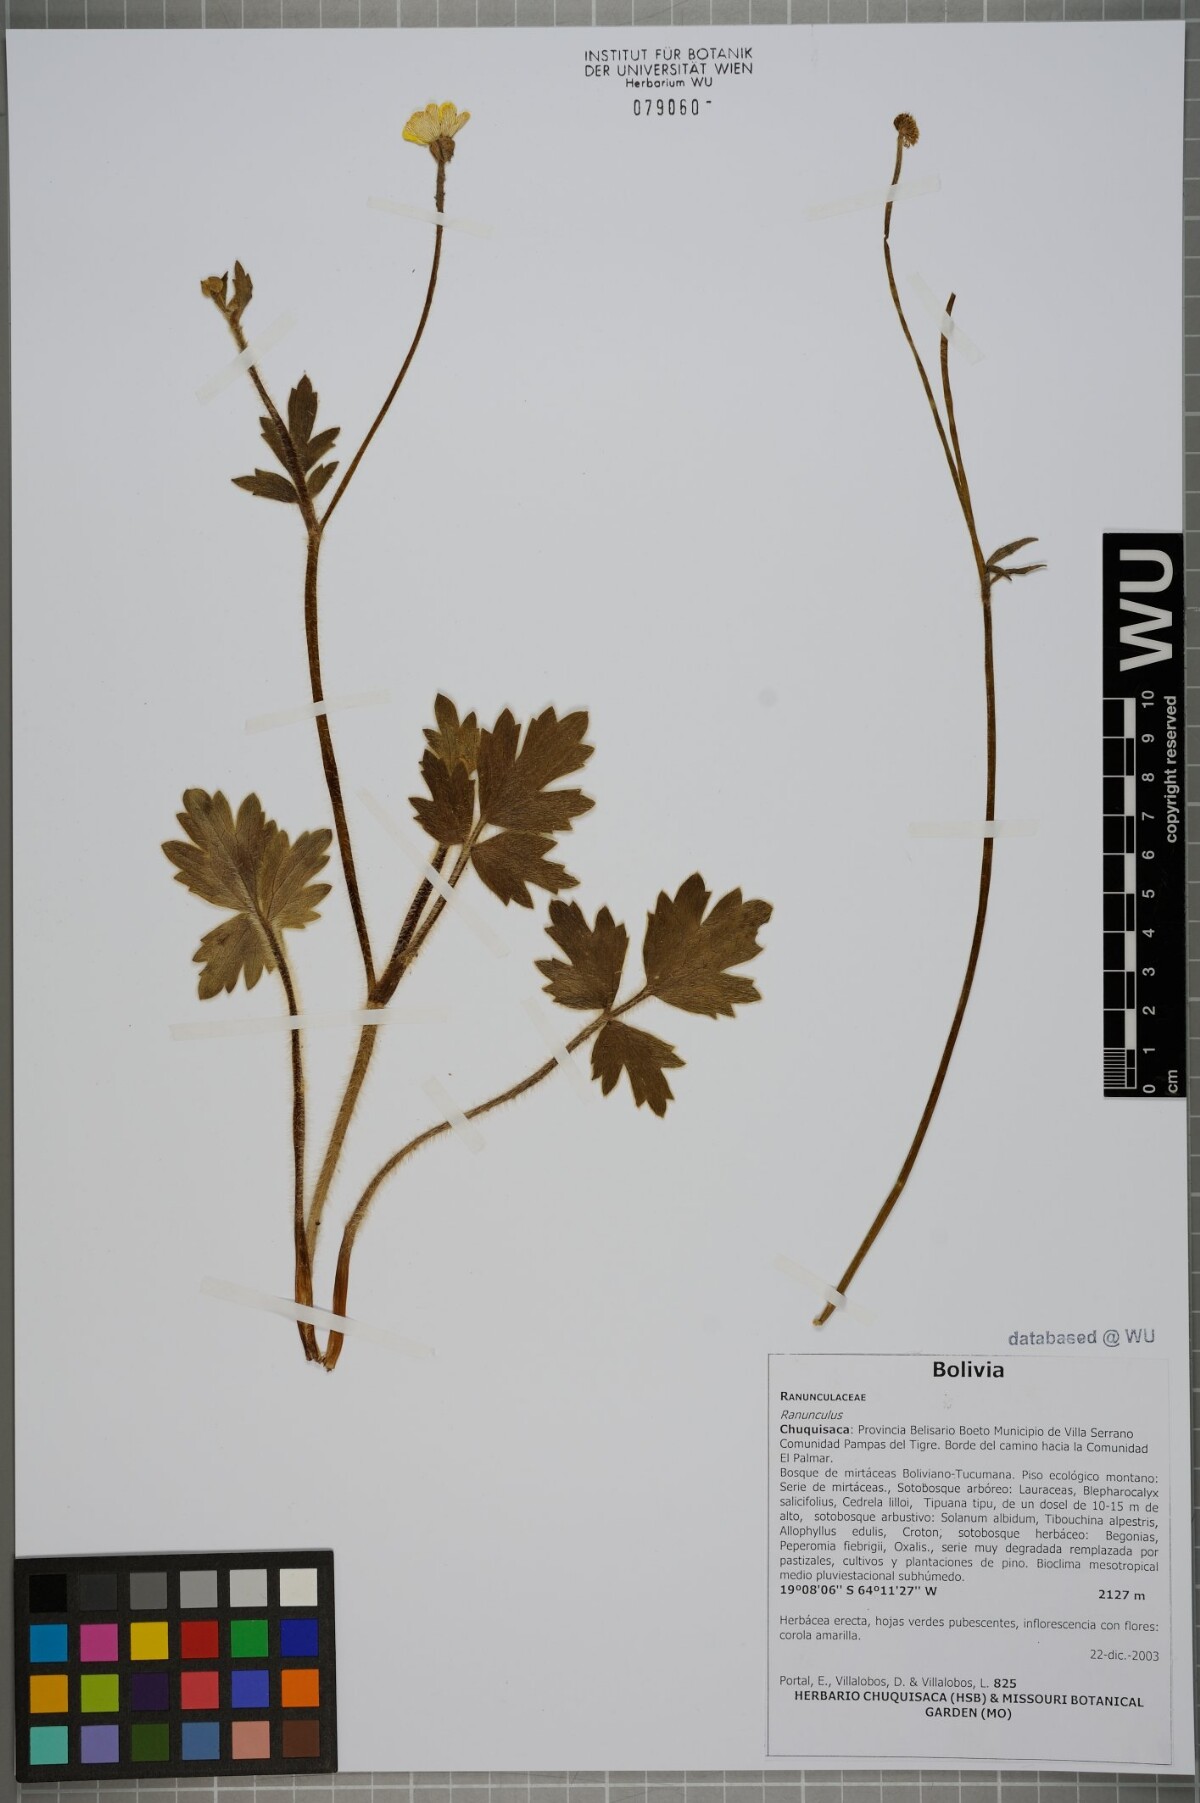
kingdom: Plantae
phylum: Tracheophyta
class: Magnoliopsida
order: Ranunculales
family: Ranunculaceae
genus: Ranunculus
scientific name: Ranunculus praemorsus
